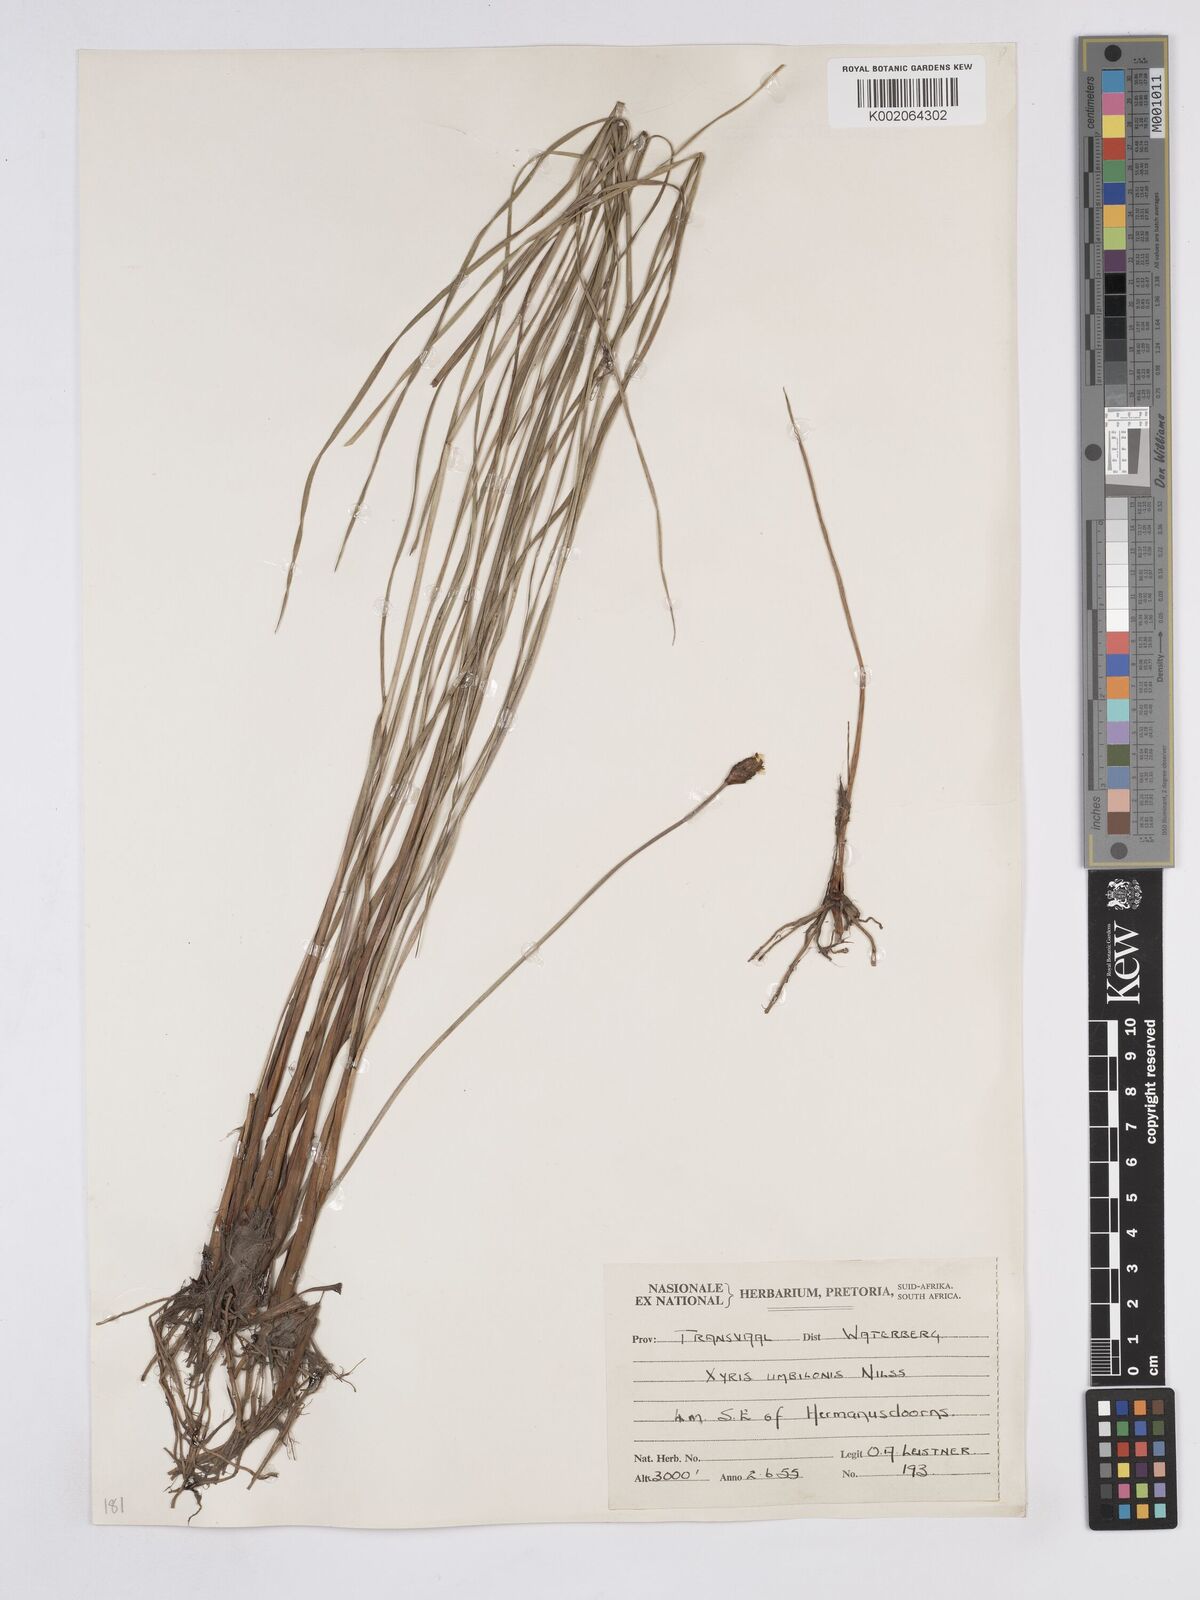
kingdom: Plantae
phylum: Tracheophyta
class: Liliopsida
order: Poales
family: Xyridaceae
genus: Xyris
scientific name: Xyris congensis
